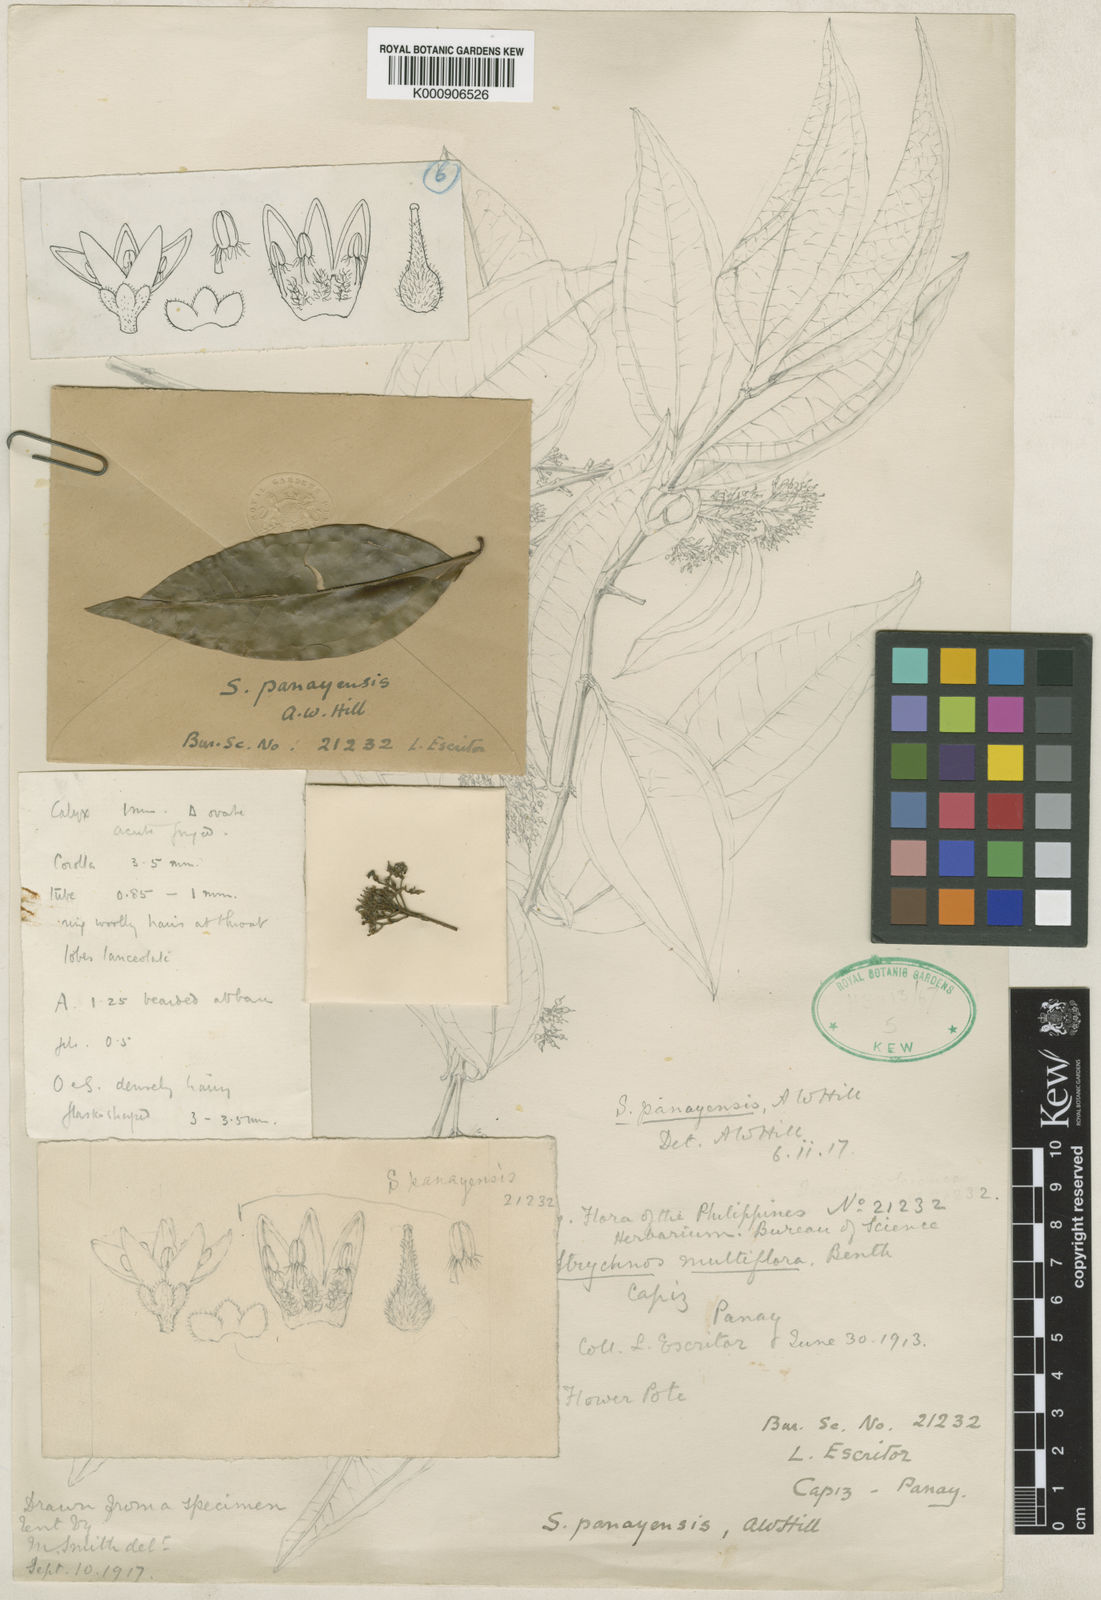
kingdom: Plantae
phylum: Tracheophyta
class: Magnoliopsida
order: Gentianales
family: Loganiaceae
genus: Strychnos
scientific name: Strychnos ovata
